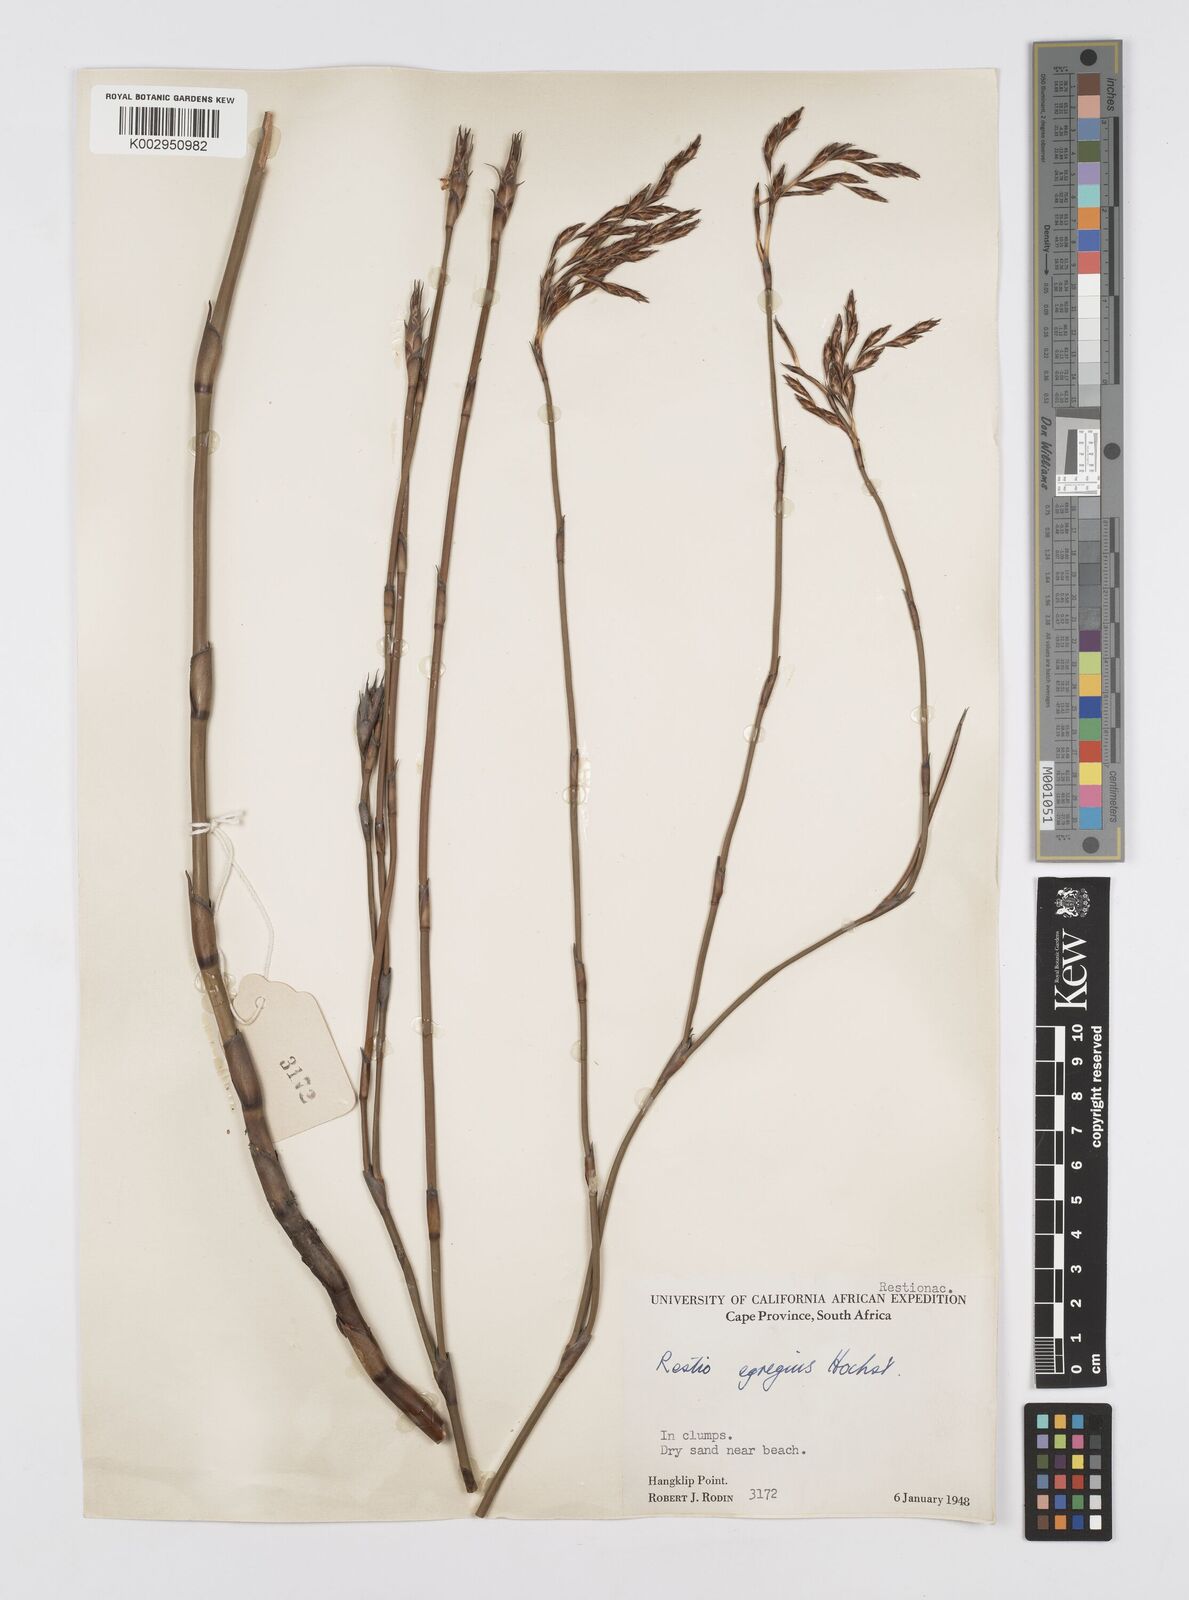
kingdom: Plantae
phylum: Tracheophyta
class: Liliopsida
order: Poales
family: Restionaceae
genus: Restio
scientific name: Restio egregius
